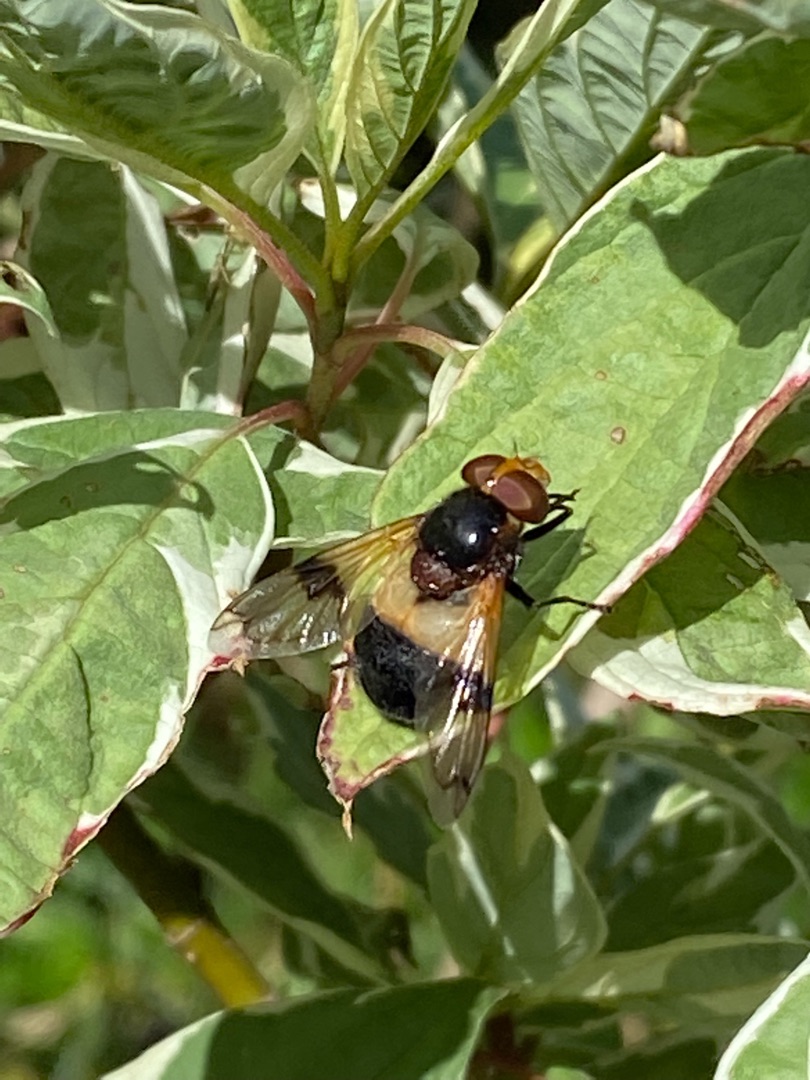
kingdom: Animalia
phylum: Arthropoda
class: Insecta
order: Diptera
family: Syrphidae
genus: Volucella
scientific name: Volucella pellucens
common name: Hvidbåndet humlesvirreflue
